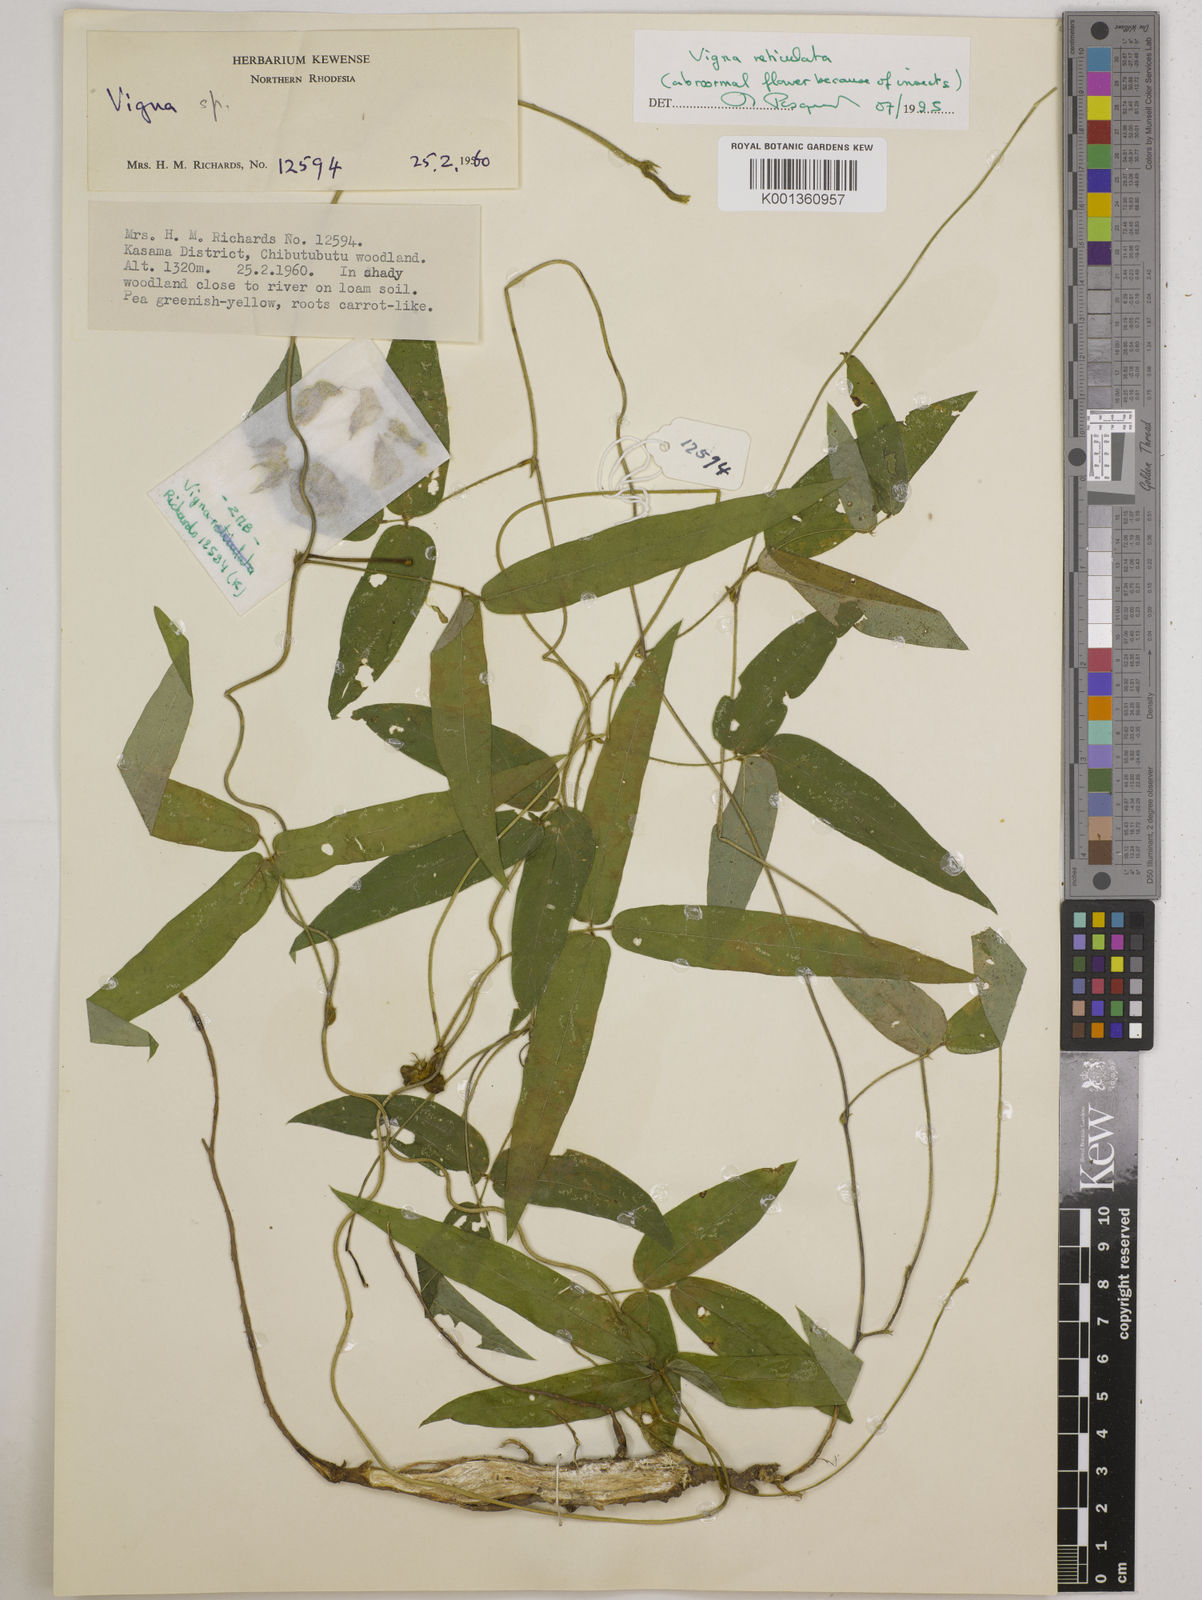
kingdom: Plantae
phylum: Tracheophyta
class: Magnoliopsida
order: Fabales
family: Fabaceae
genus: Vigna
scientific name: Vigna reticulata
